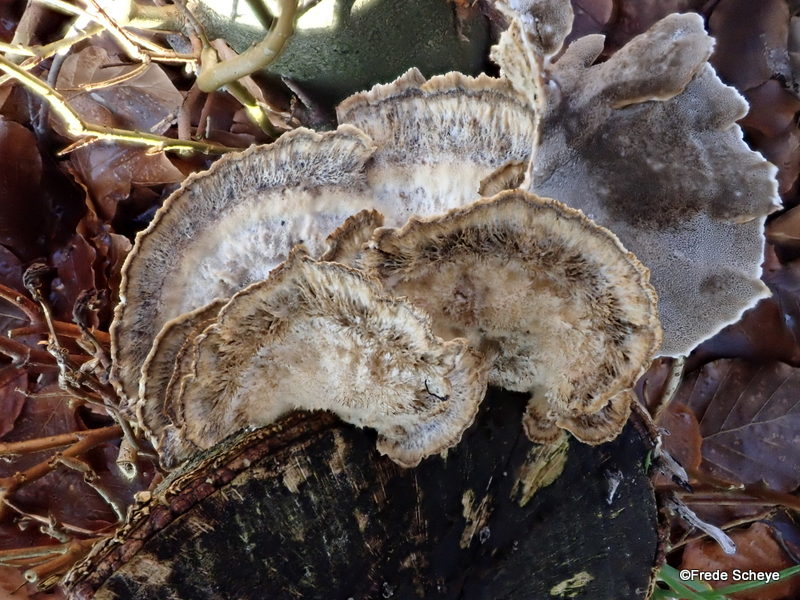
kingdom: Fungi
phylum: Basidiomycota
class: Agaricomycetes
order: Polyporales
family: Phanerochaetaceae
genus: Bjerkandera
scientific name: Bjerkandera adusta
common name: sveden sodporesvamp
